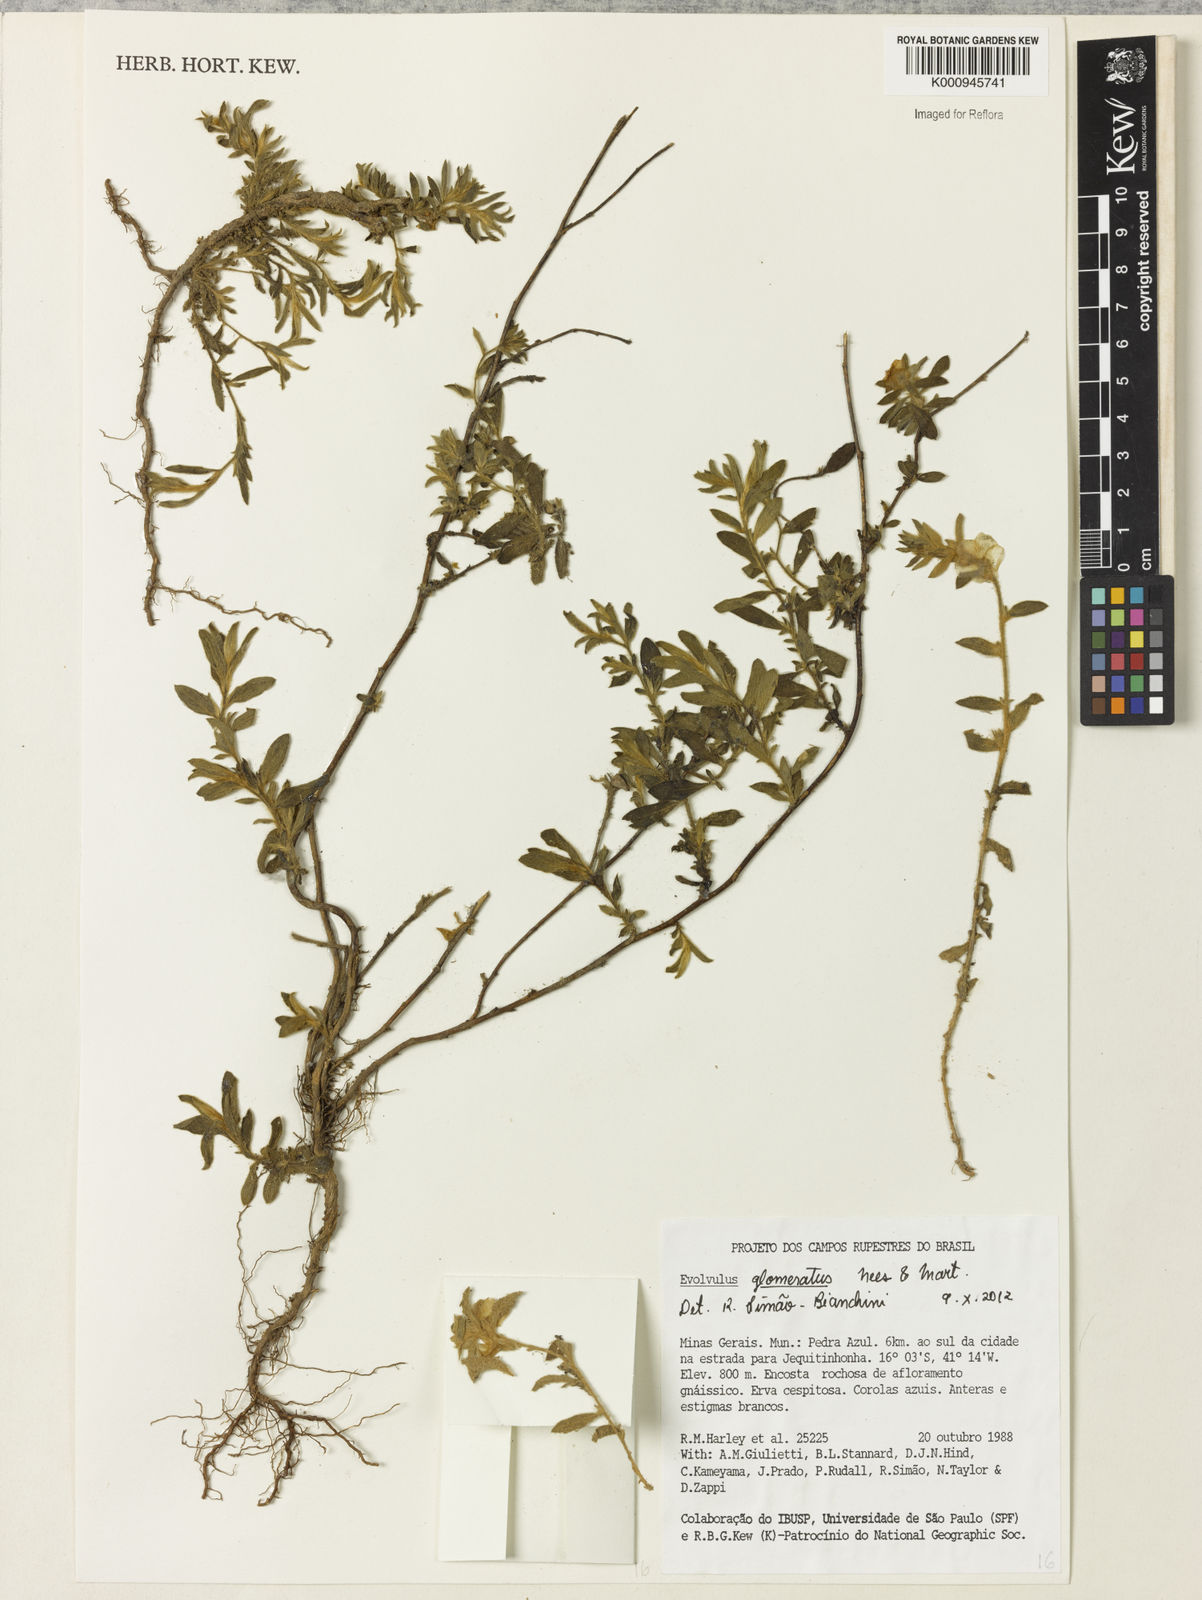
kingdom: Plantae
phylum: Tracheophyta
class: Magnoliopsida
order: Solanales
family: Convolvulaceae
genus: Evolvulus
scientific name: Evolvulus glomeratus
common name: Brazilian dwarf morning-glory
